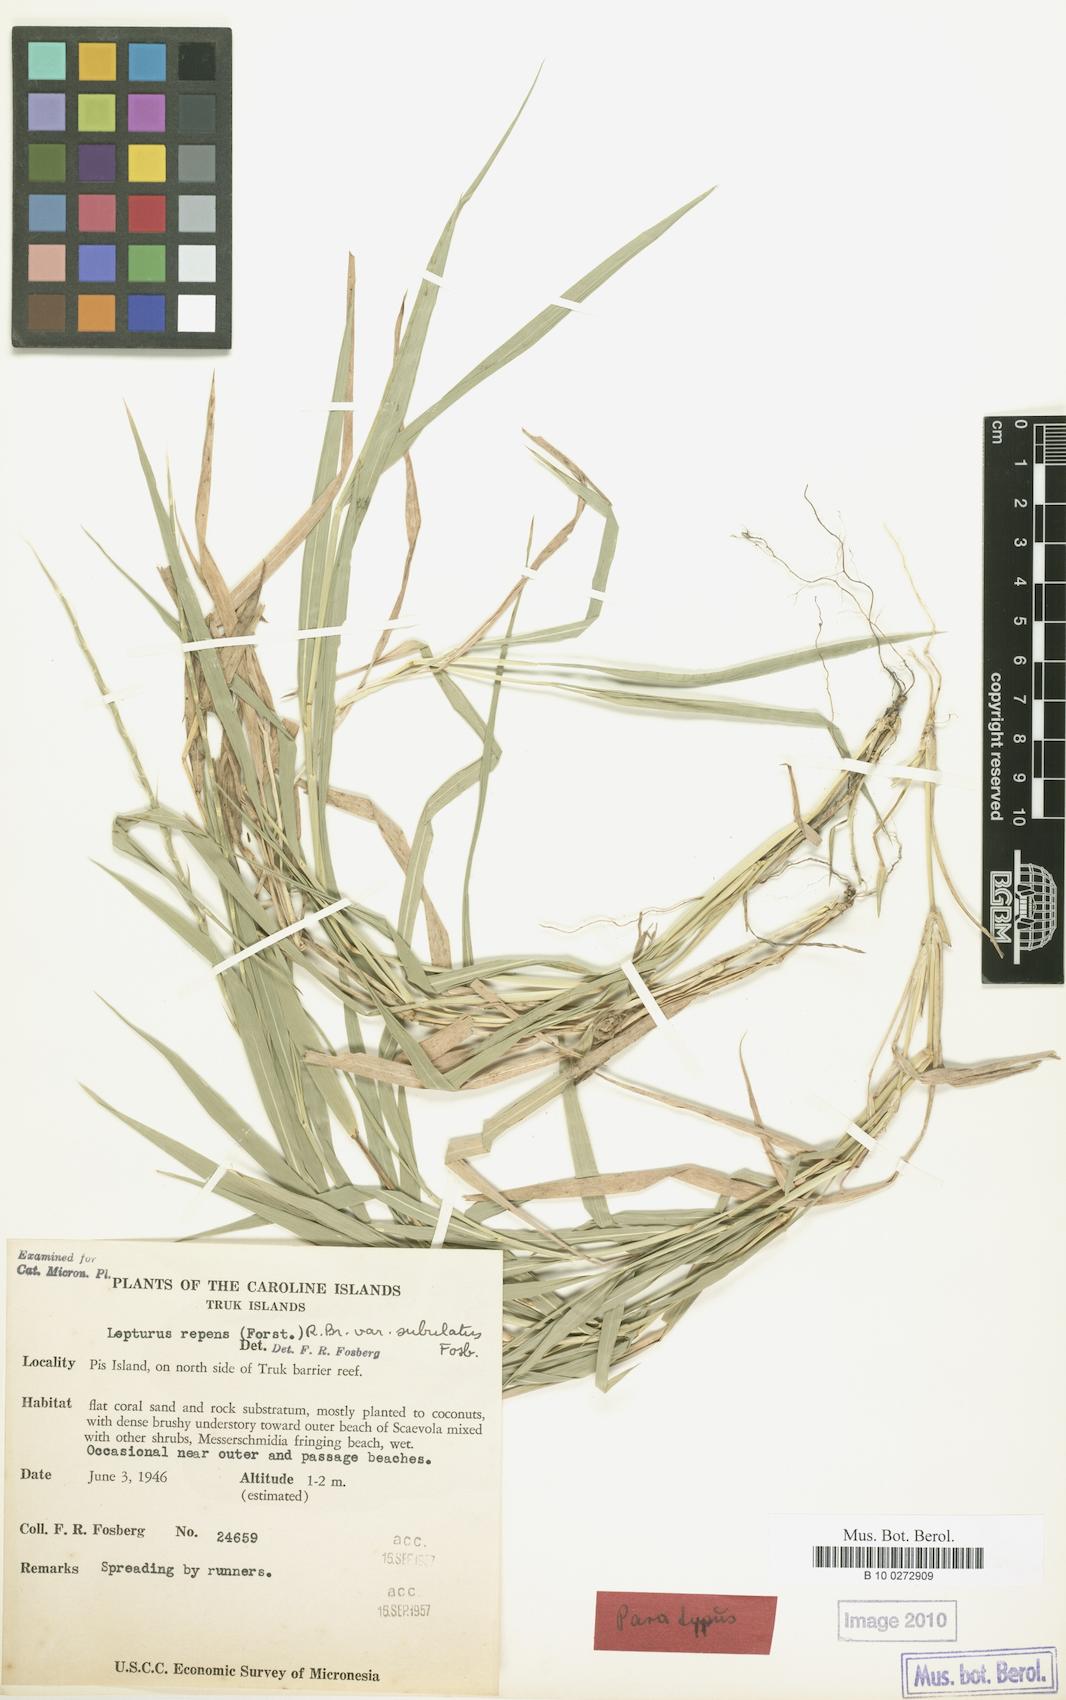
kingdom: Plantae
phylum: Tracheophyta
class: Liliopsida
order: Poales
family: Poaceae
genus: Lepturus
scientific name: Lepturus repens
